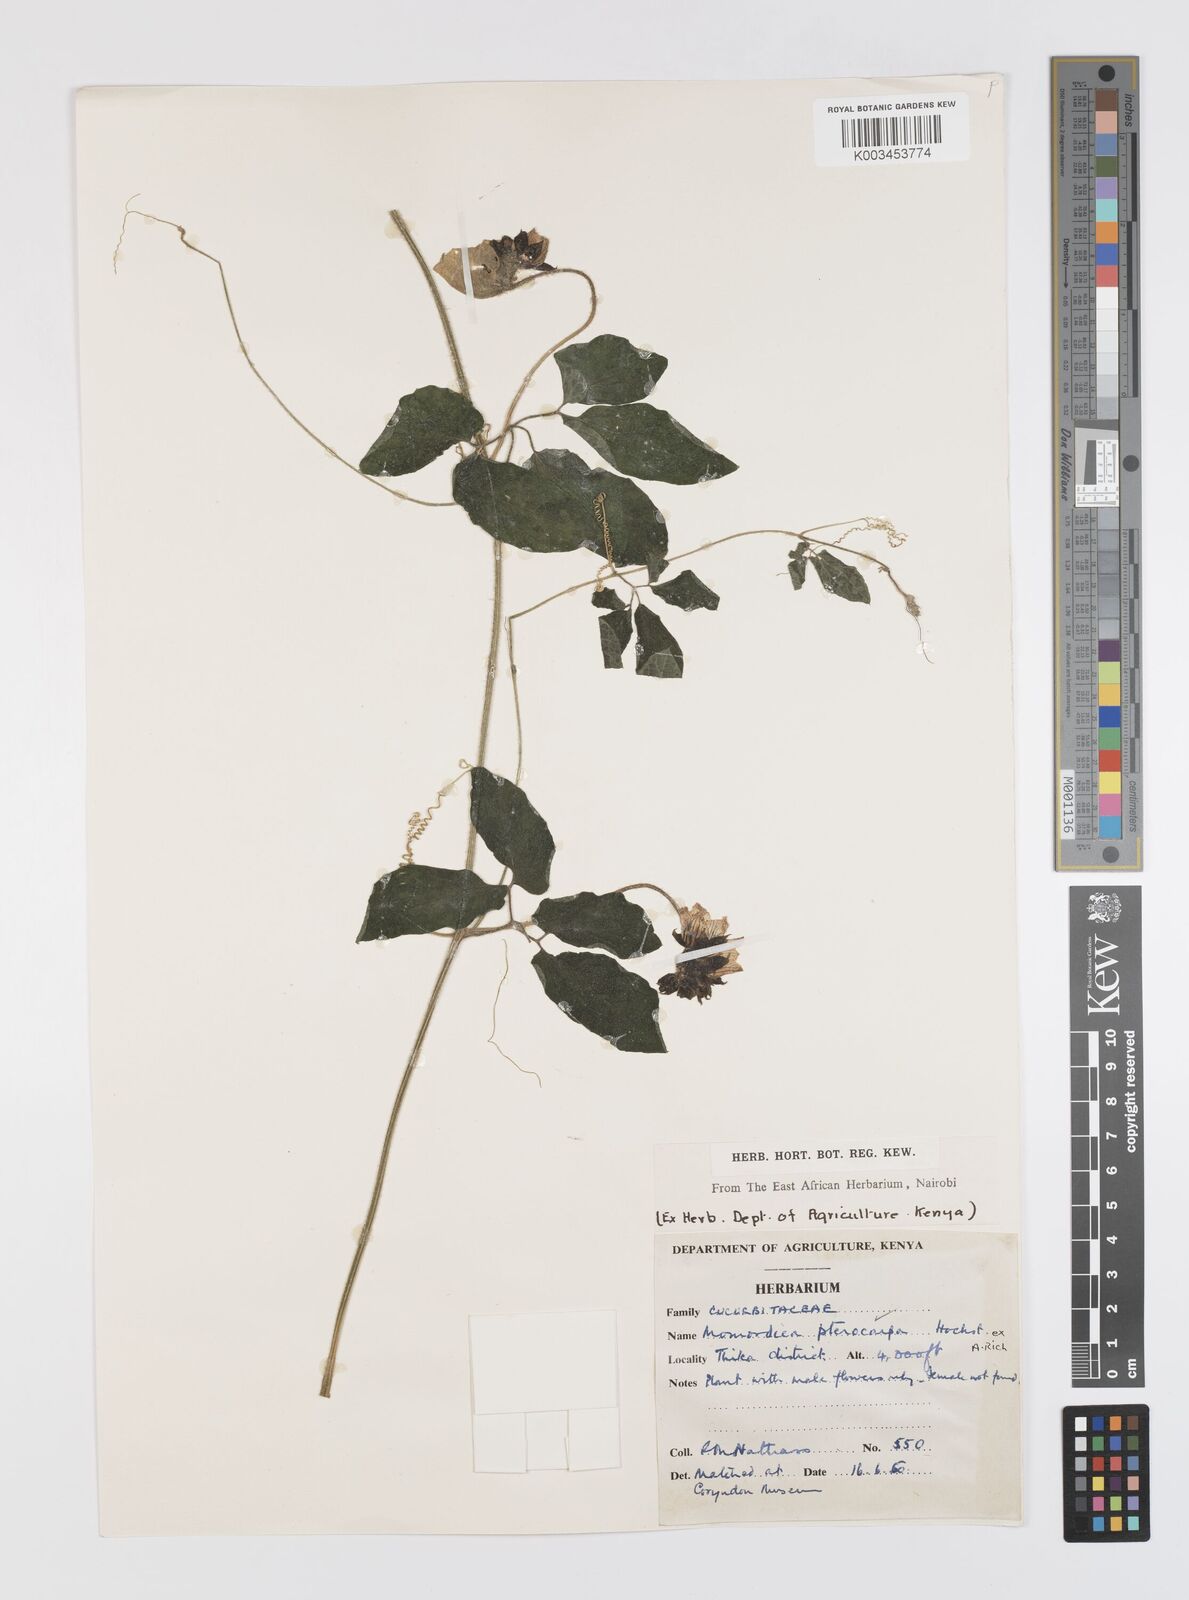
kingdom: Plantae
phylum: Tracheophyta
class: Magnoliopsida
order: Cucurbitales
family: Cucurbitaceae
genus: Momordica
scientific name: Momordica pterocarpa
